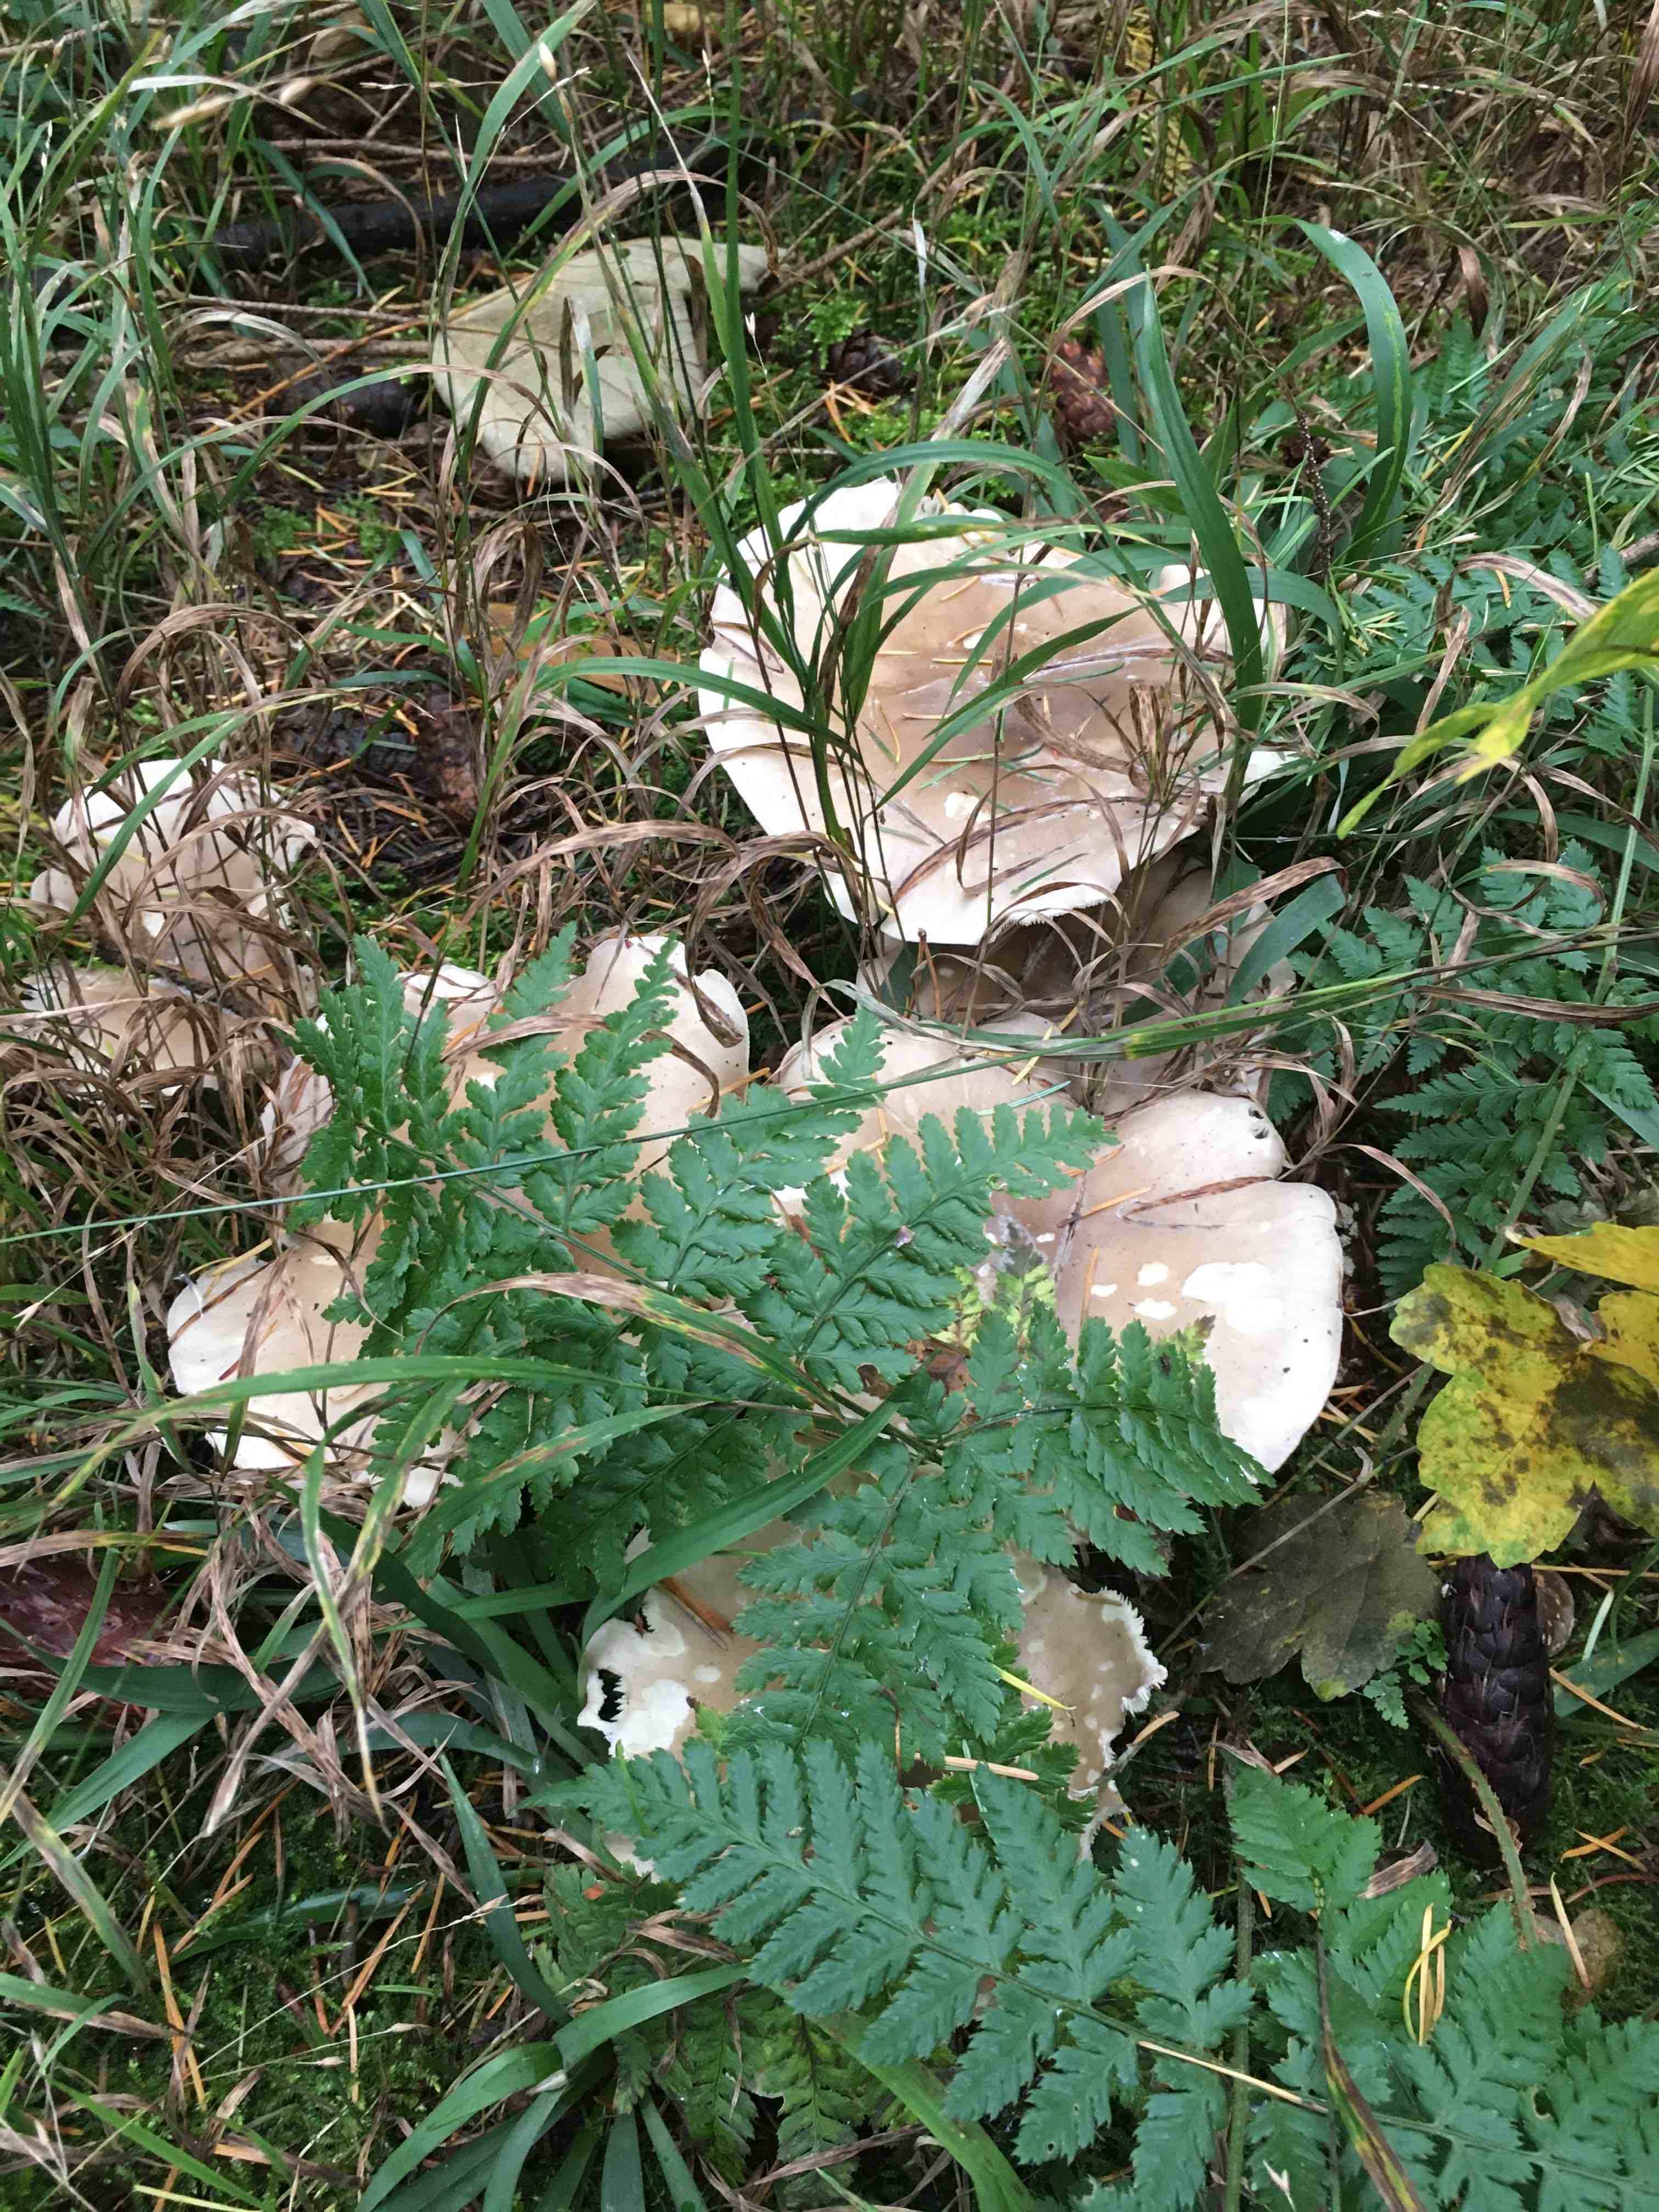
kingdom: Fungi
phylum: Basidiomycota
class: Agaricomycetes
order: Agaricales
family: Tricholomataceae
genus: Clitocybe
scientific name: Clitocybe nebularis
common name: tåge-tragthat
